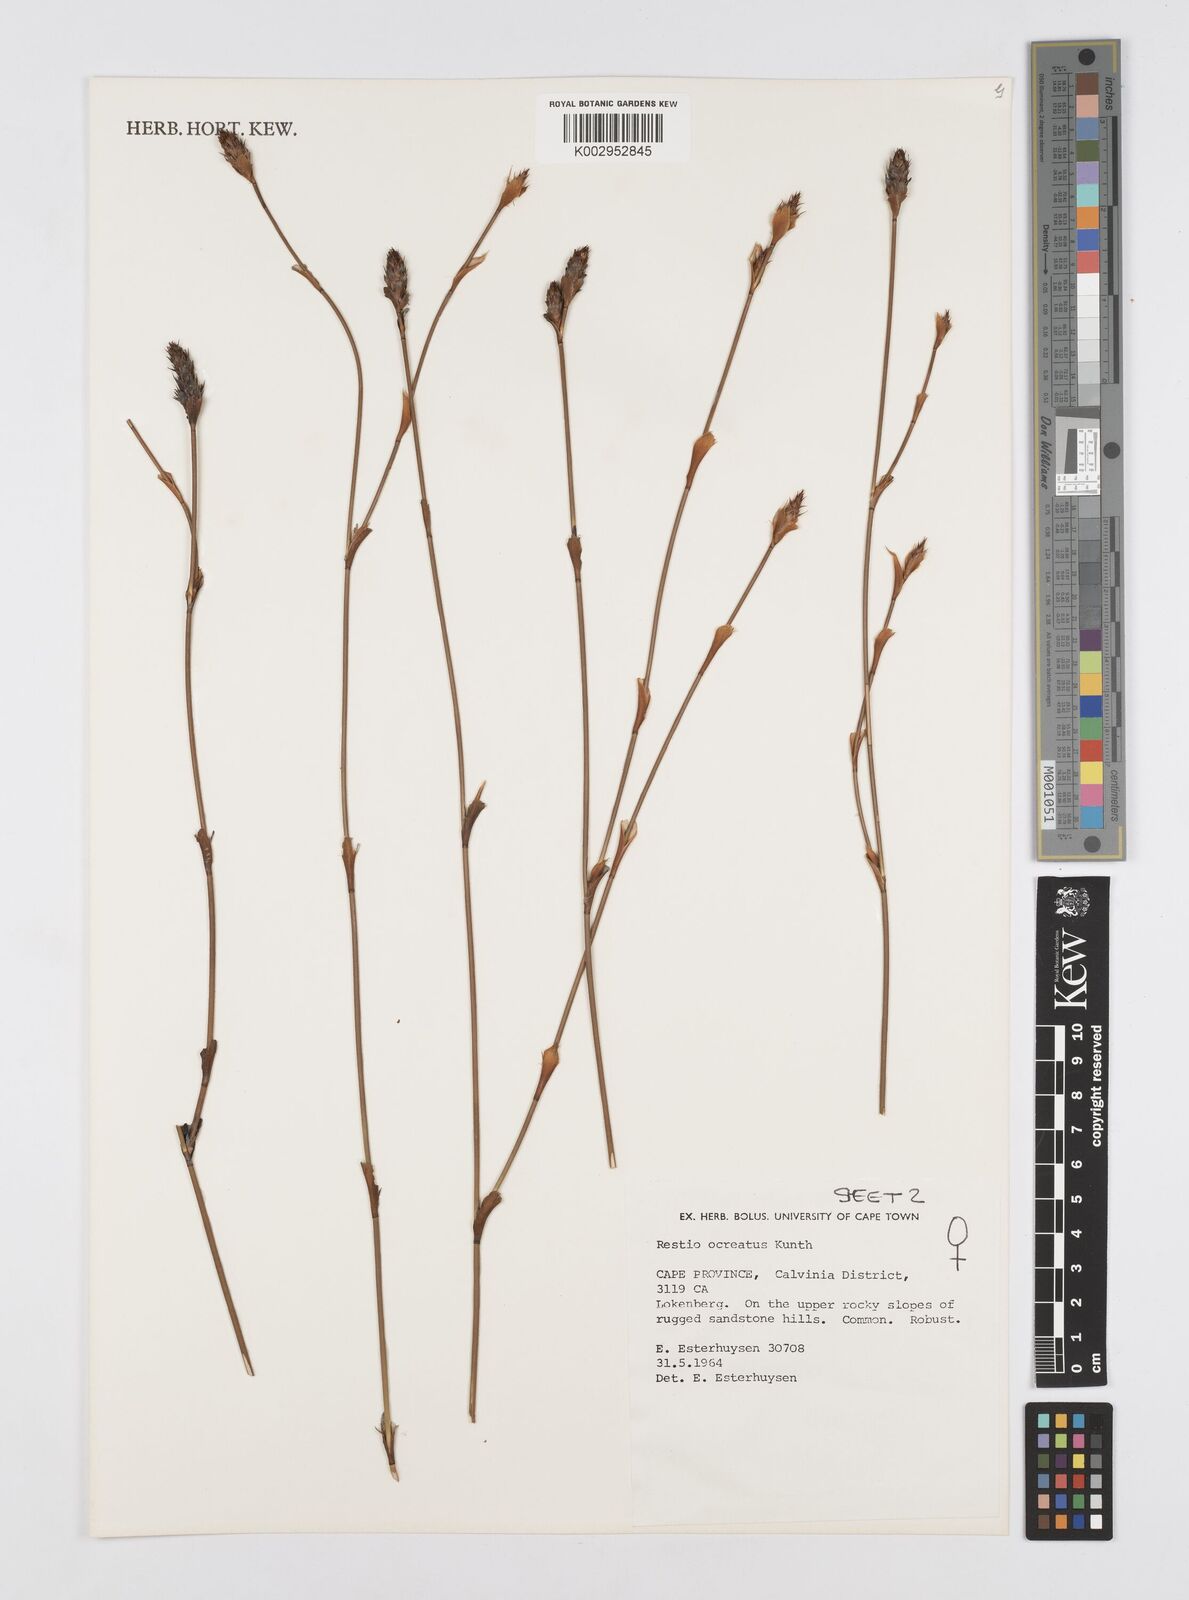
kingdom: Plantae
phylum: Tracheophyta
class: Liliopsida
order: Poales
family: Restionaceae
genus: Restio
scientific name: Restio ocreatus
